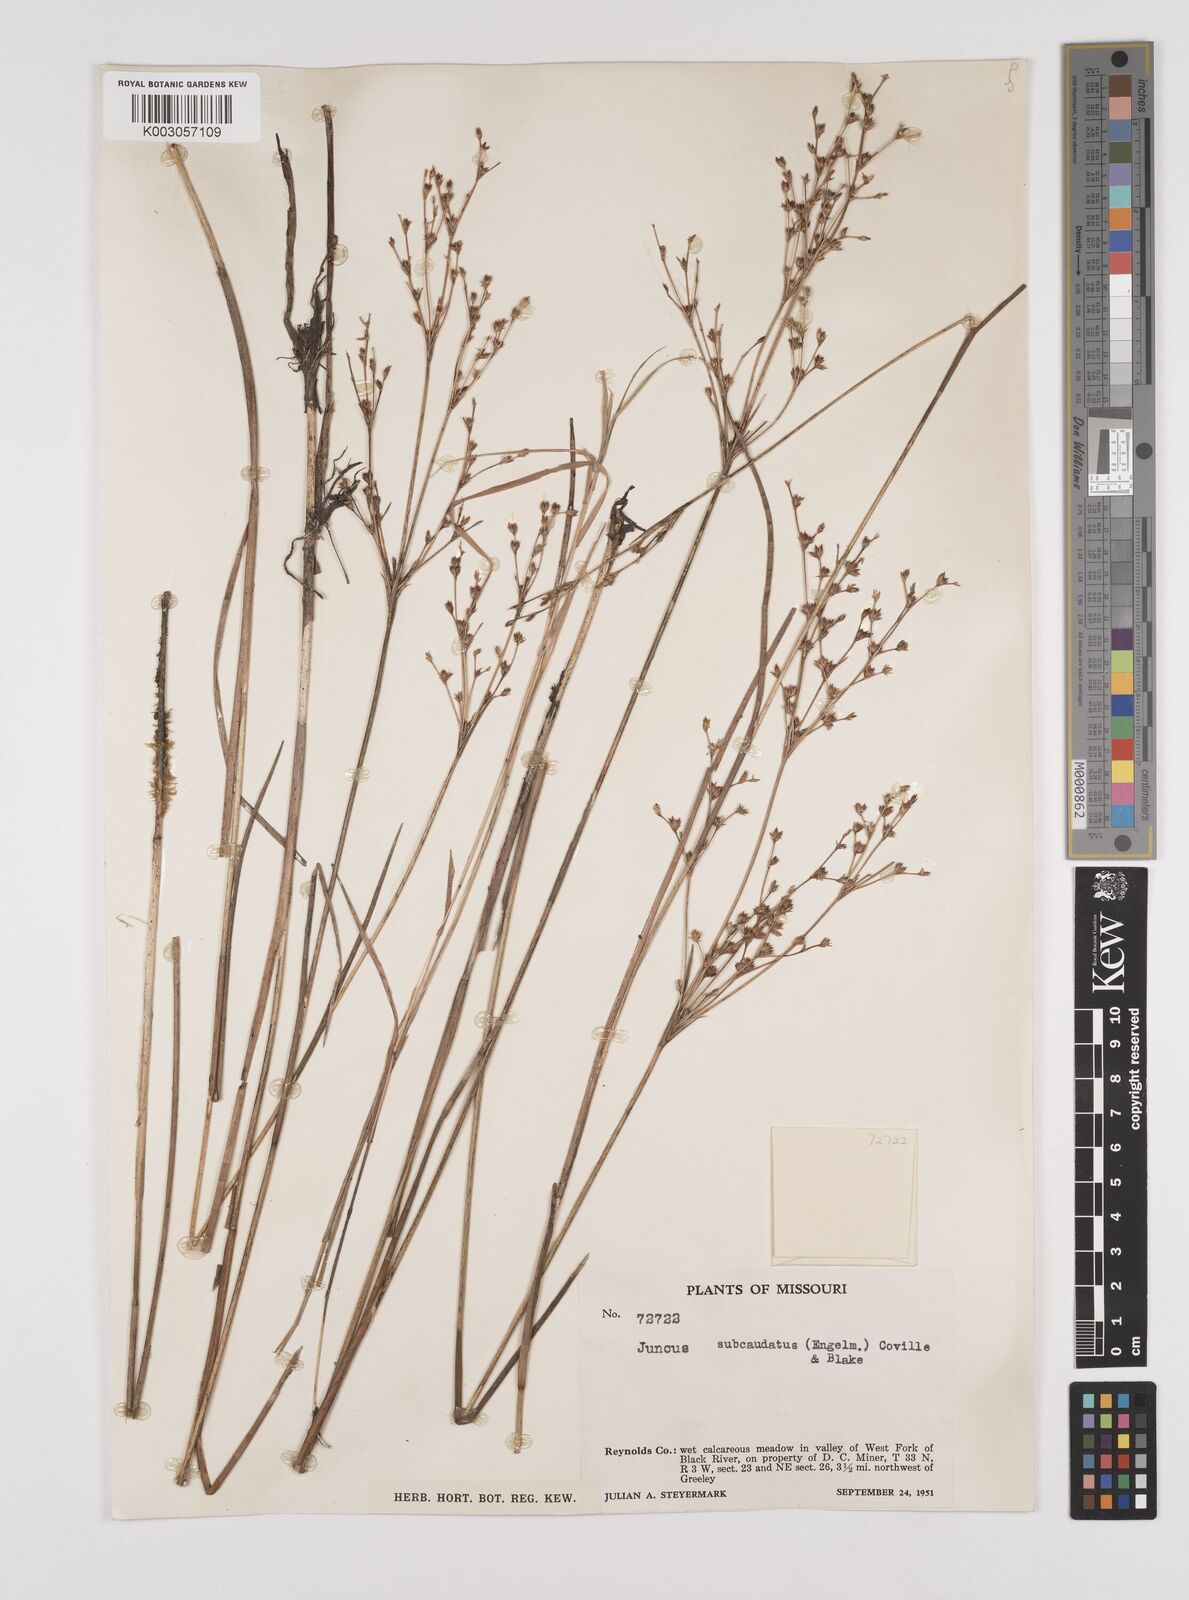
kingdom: Plantae
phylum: Tracheophyta
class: Liliopsida
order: Poales
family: Juncaceae
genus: Juncus
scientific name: Juncus canadensis
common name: Canada rush
